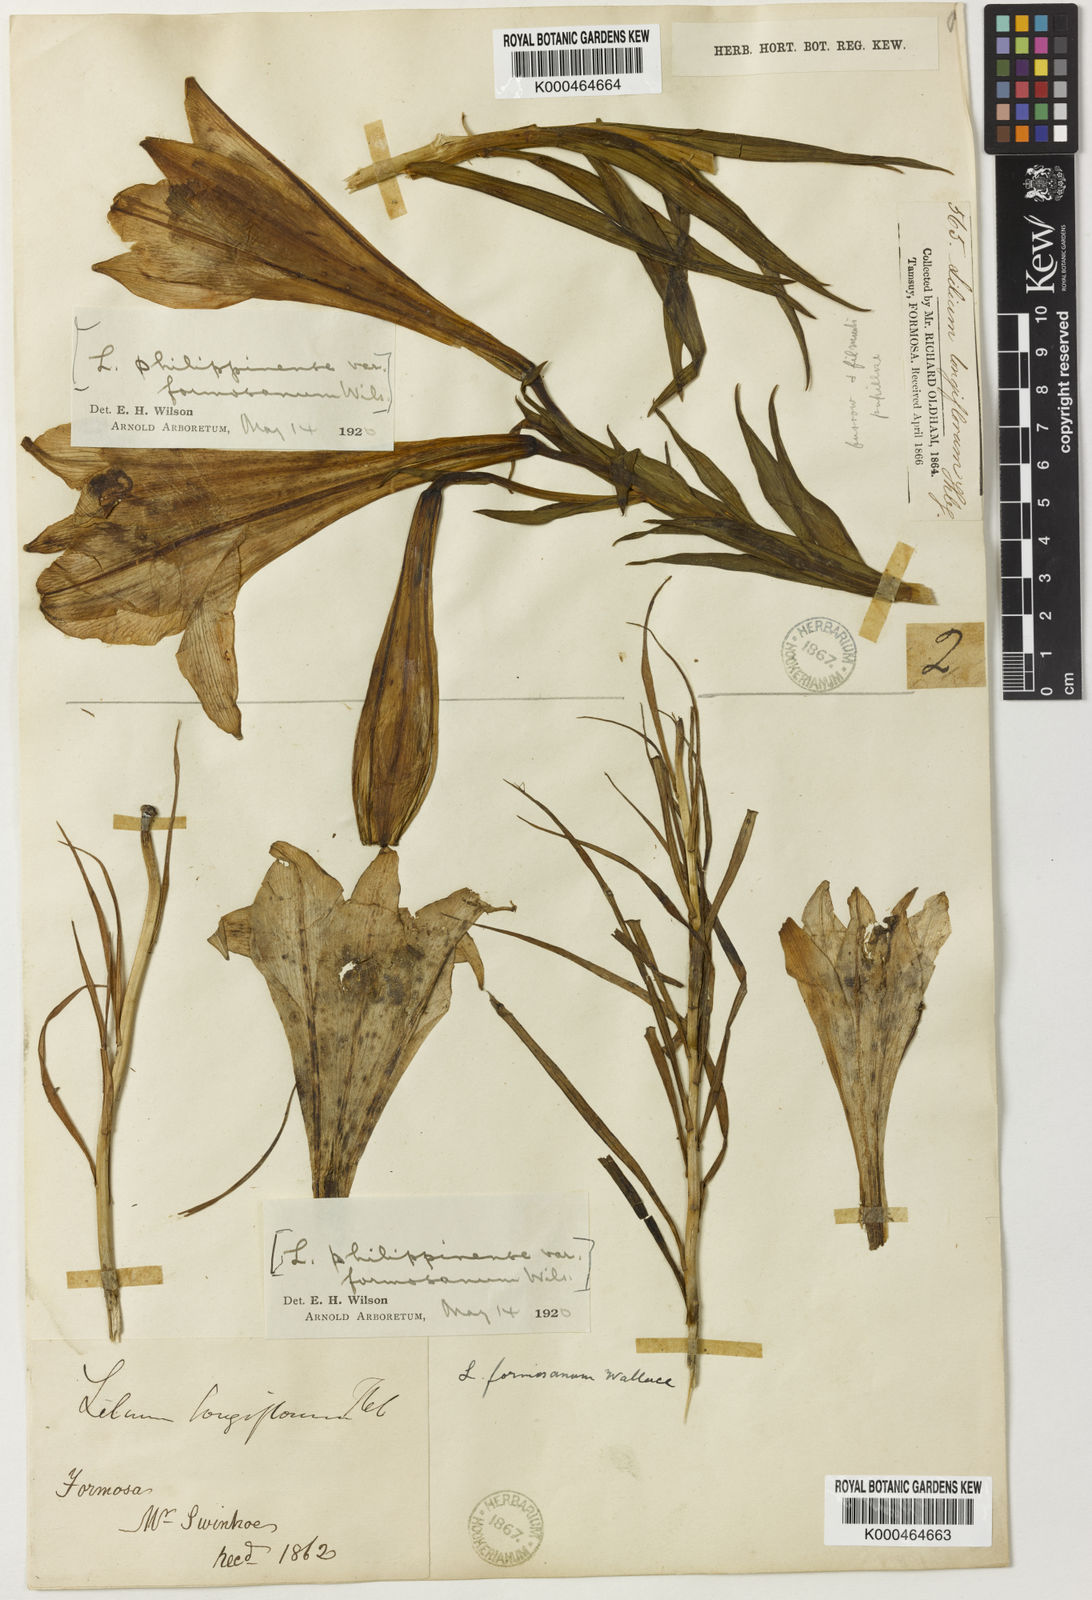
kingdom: Plantae
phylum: Tracheophyta
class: Liliopsida
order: Liliales
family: Liliaceae
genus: Lilium
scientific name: Lilium formosanum
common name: Formosa lily
